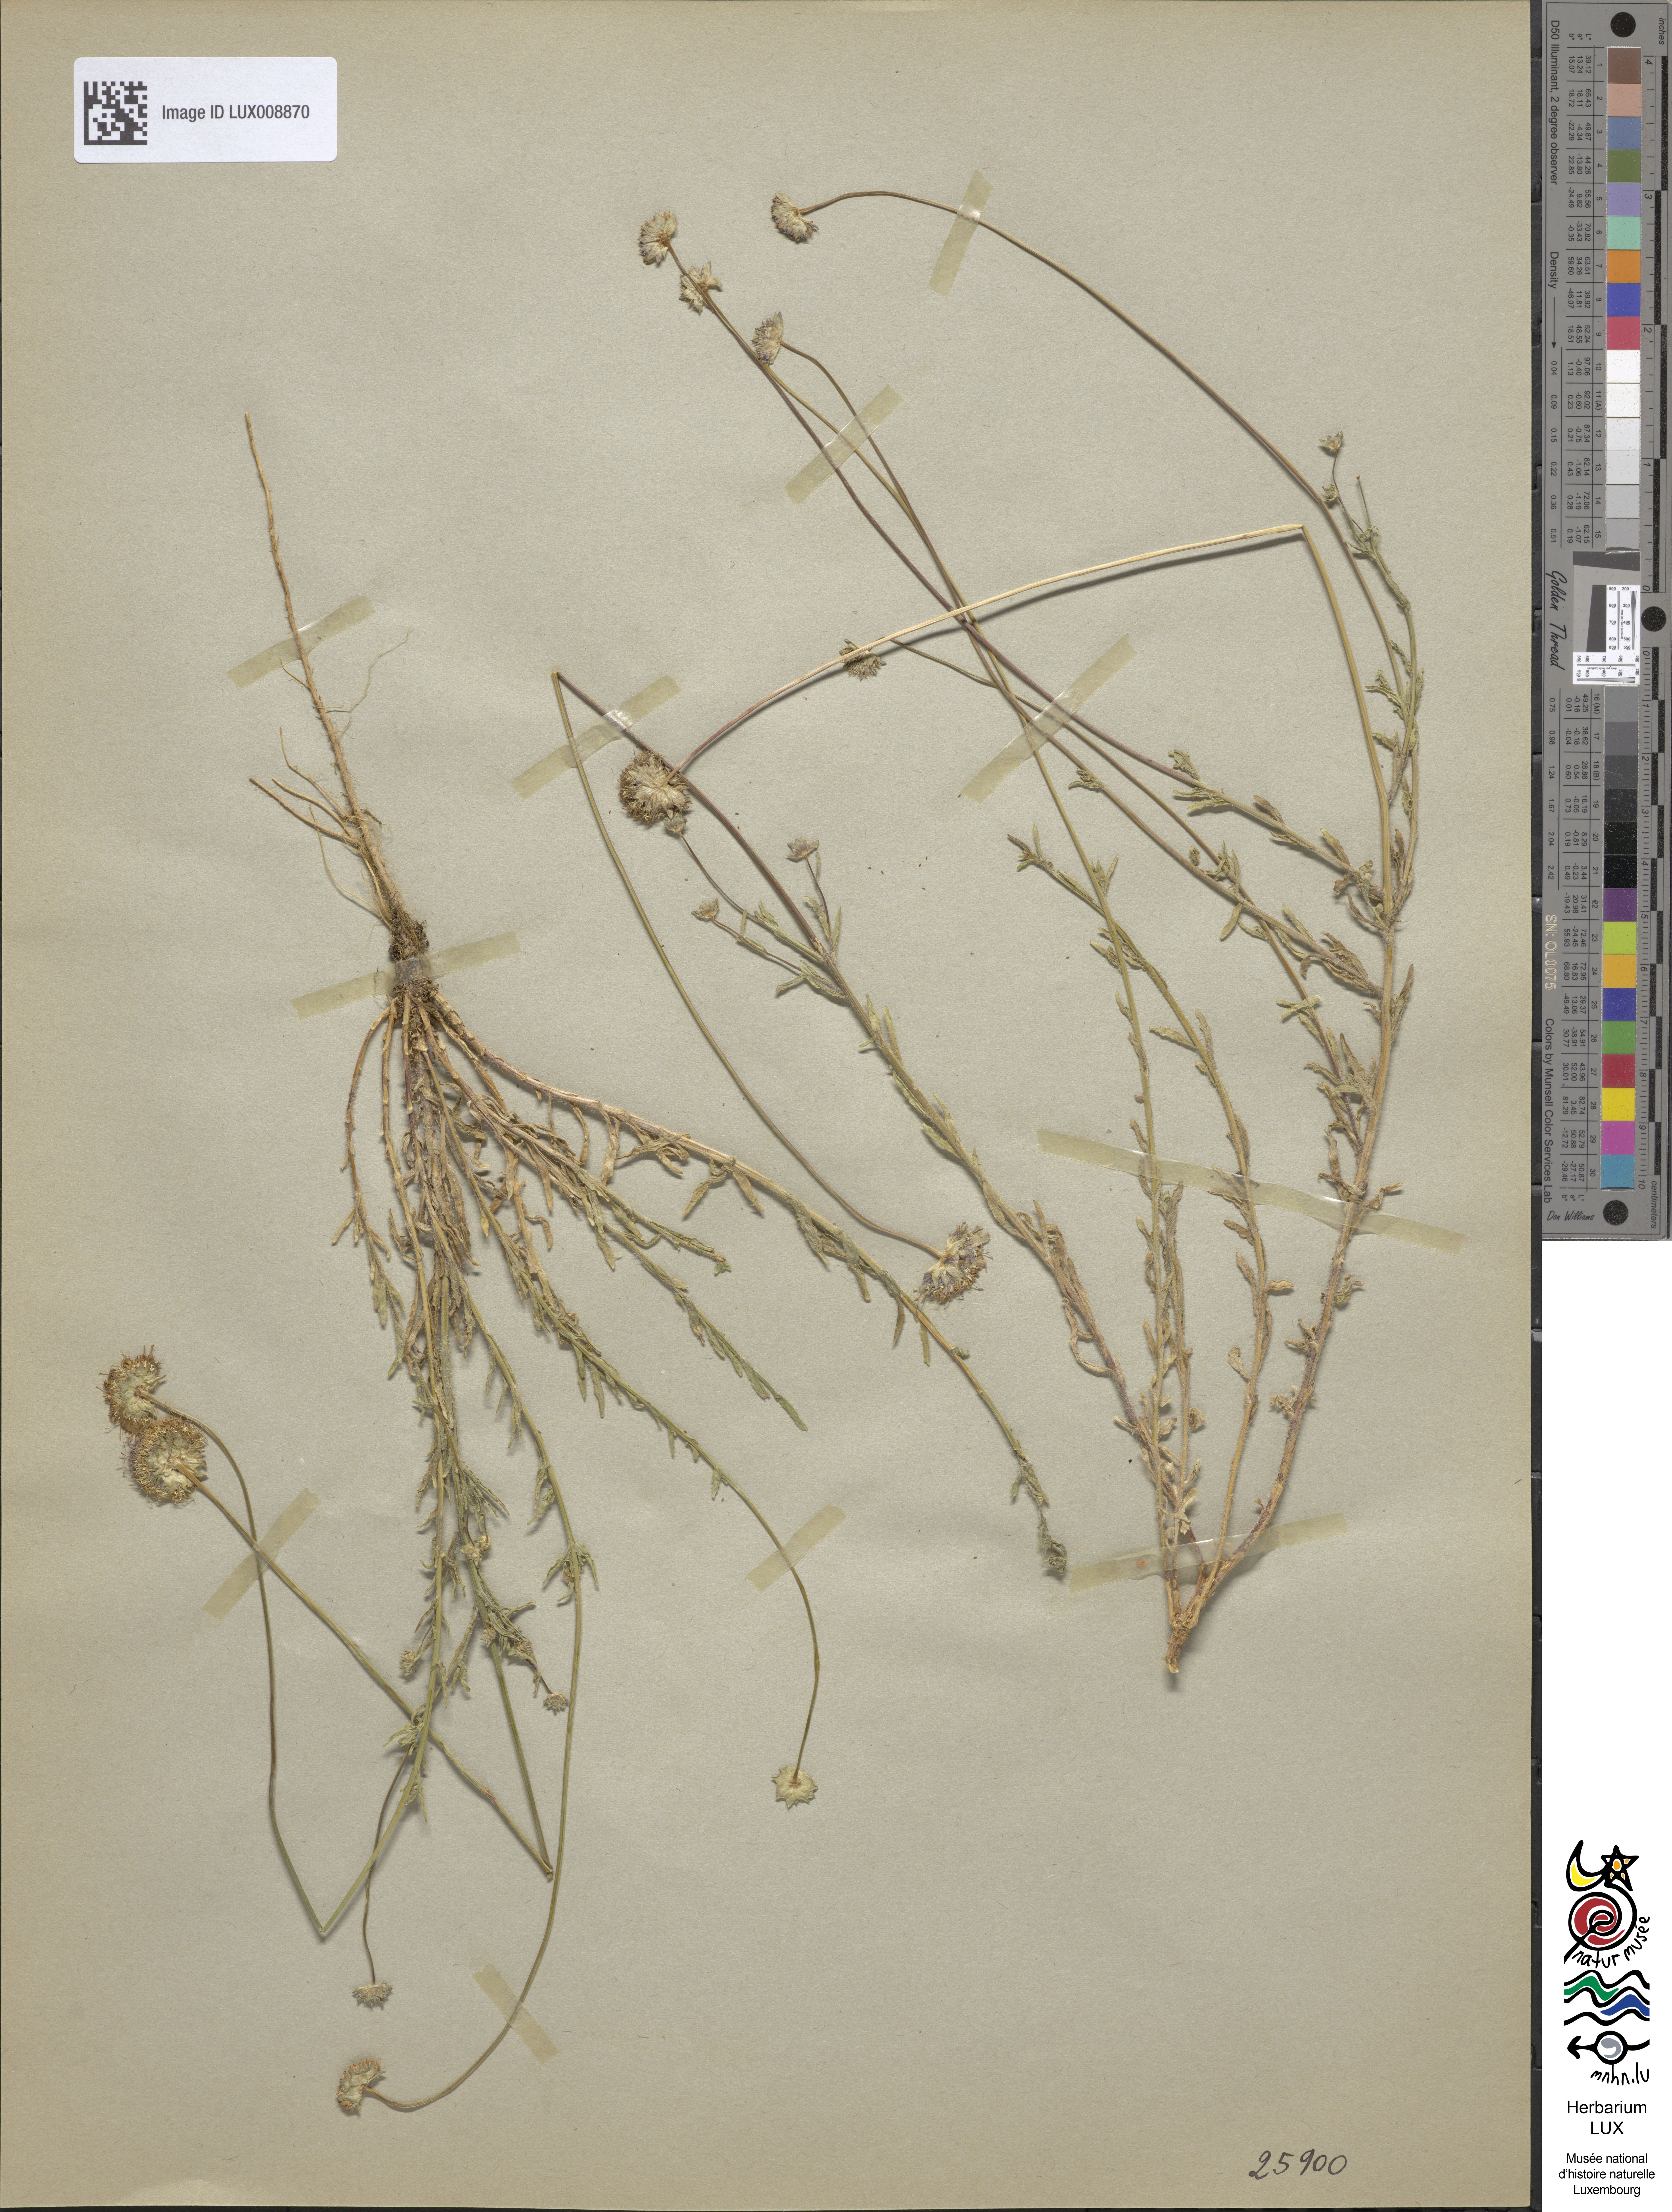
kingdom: Plantae
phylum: Tracheophyta
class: Magnoliopsida
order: Asterales
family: Campanulaceae
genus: Jasione
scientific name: Jasione montana
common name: Sheep's-bit
